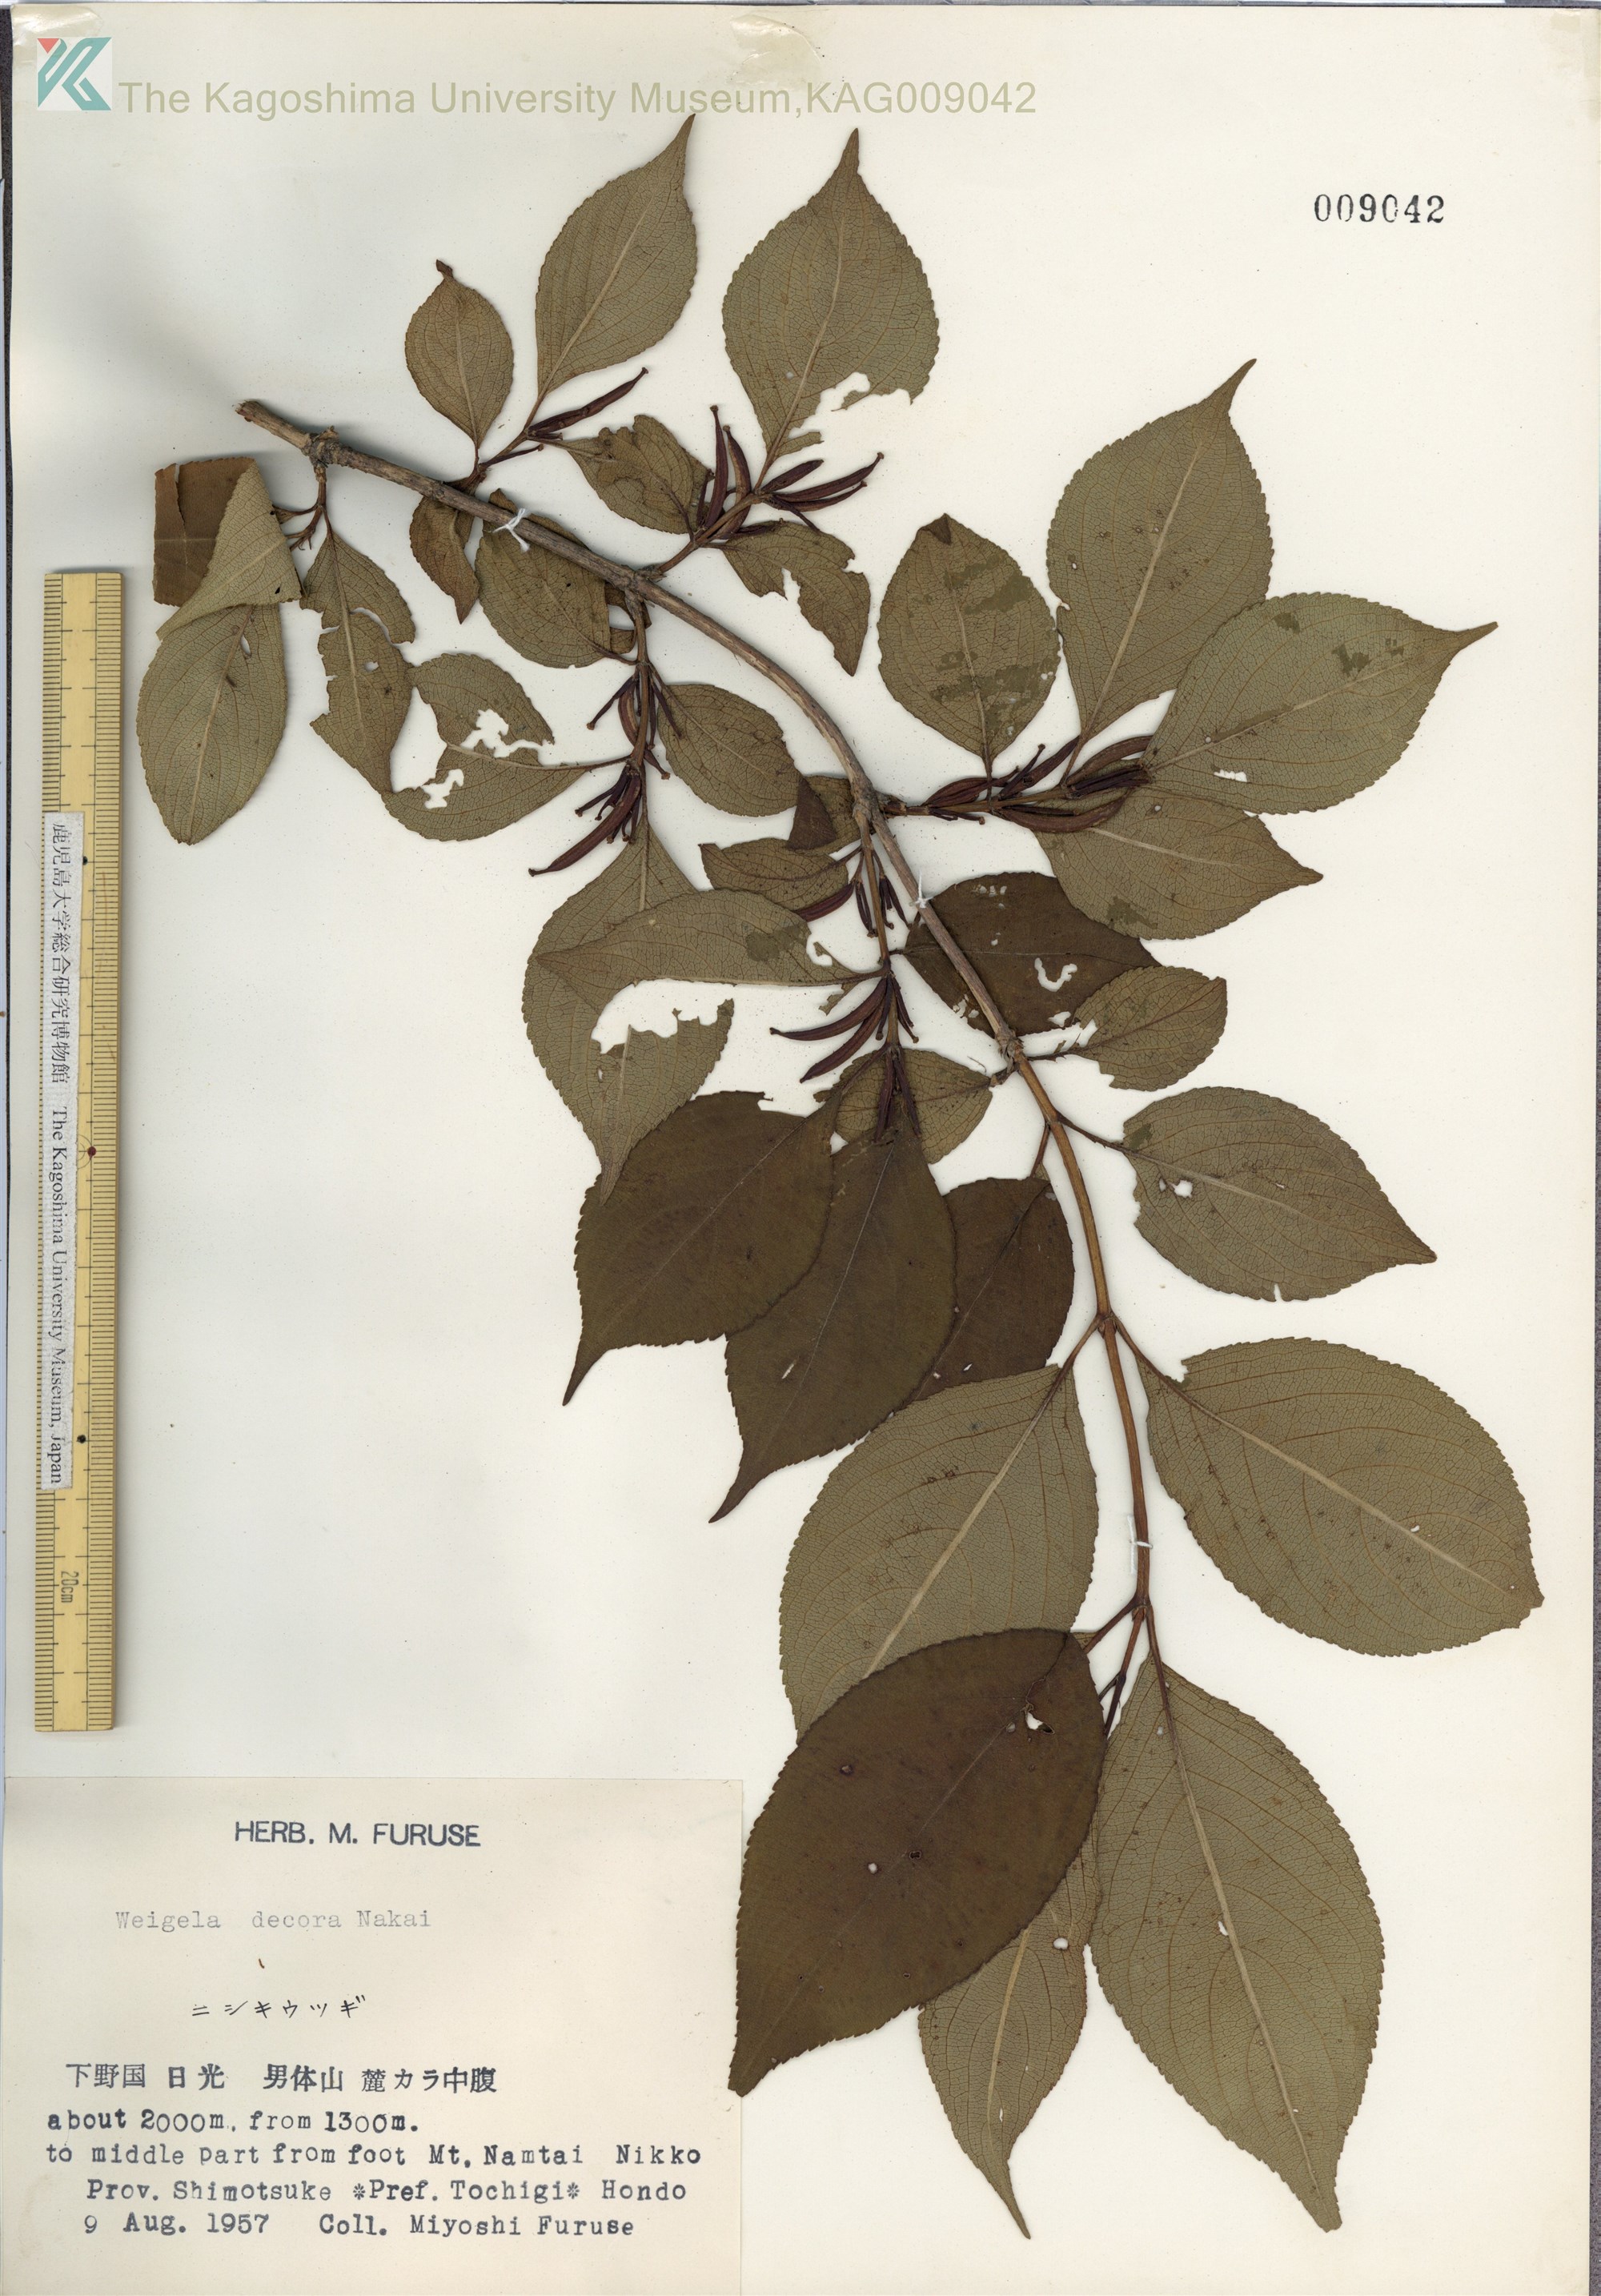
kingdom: Plantae
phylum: Tracheophyta
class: Magnoliopsida
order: Dipsacales
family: Caprifoliaceae
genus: Weigela
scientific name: Weigela decora
